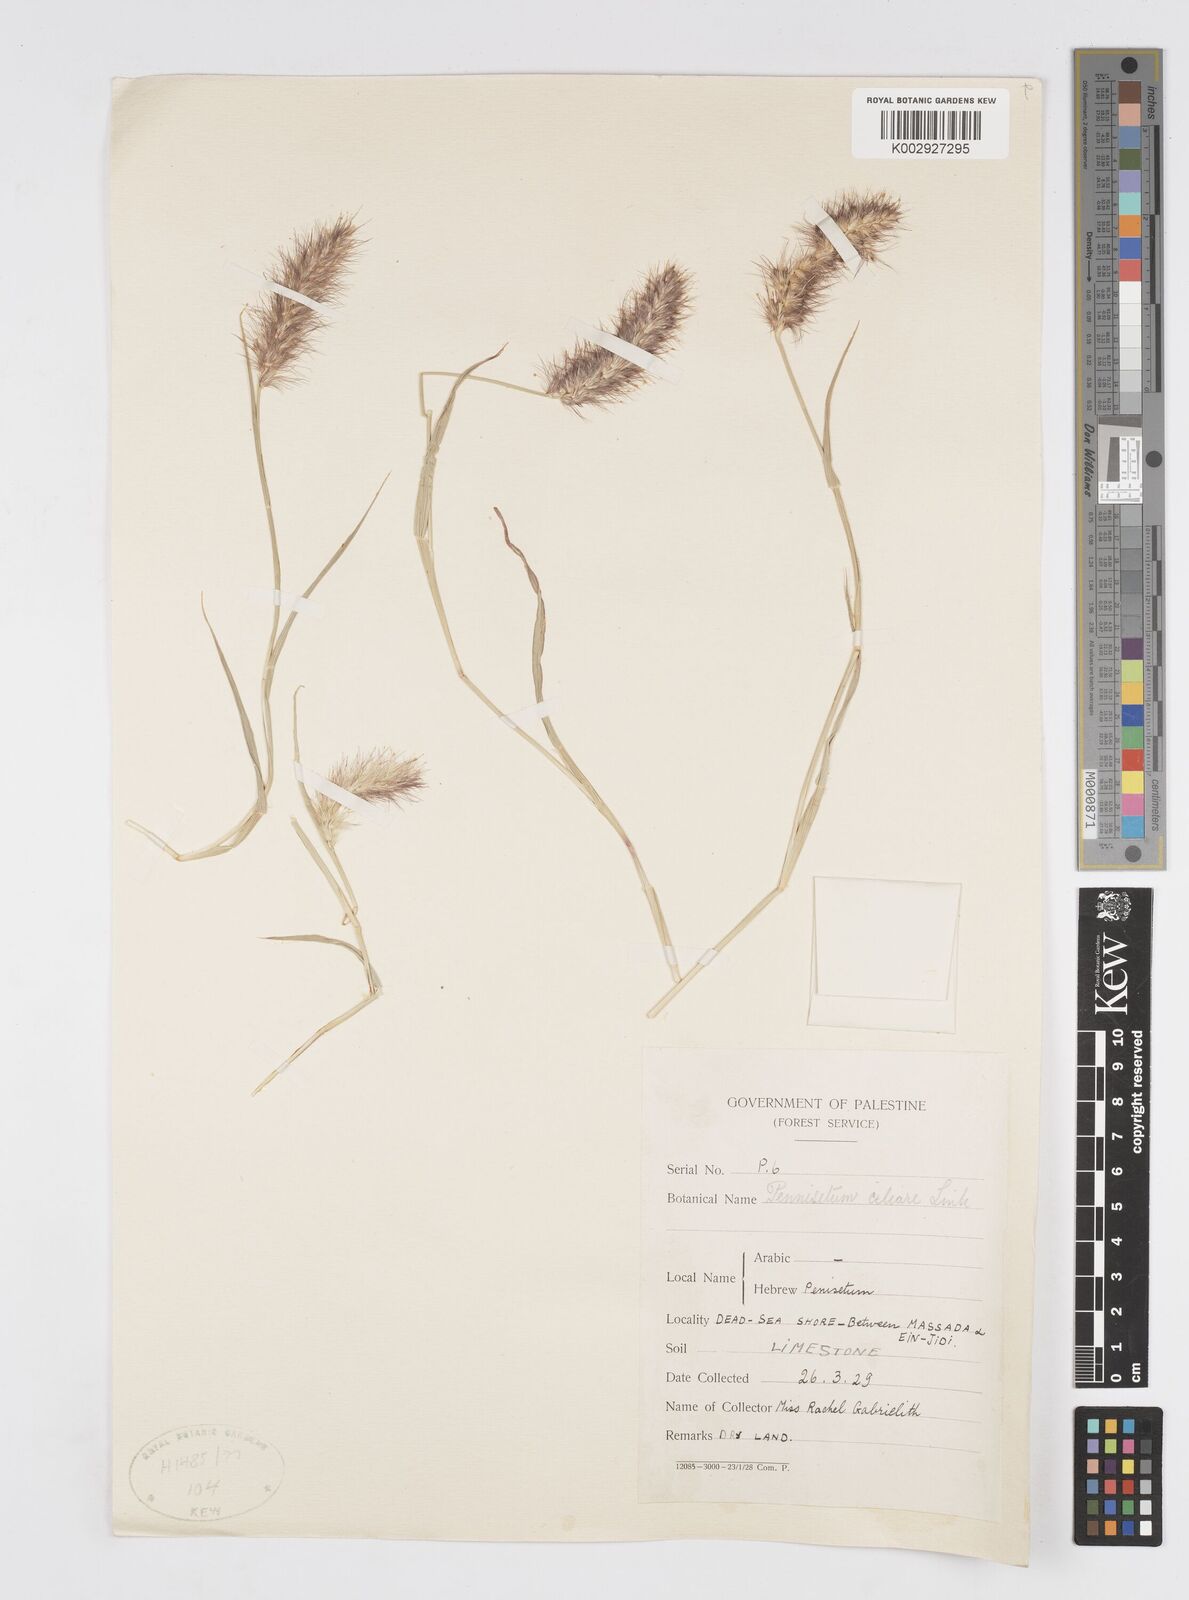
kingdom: Plantae
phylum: Tracheophyta
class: Liliopsida
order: Poales
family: Poaceae
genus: Cenchrus
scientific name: Cenchrus ciliaris
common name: Buffelgrass
